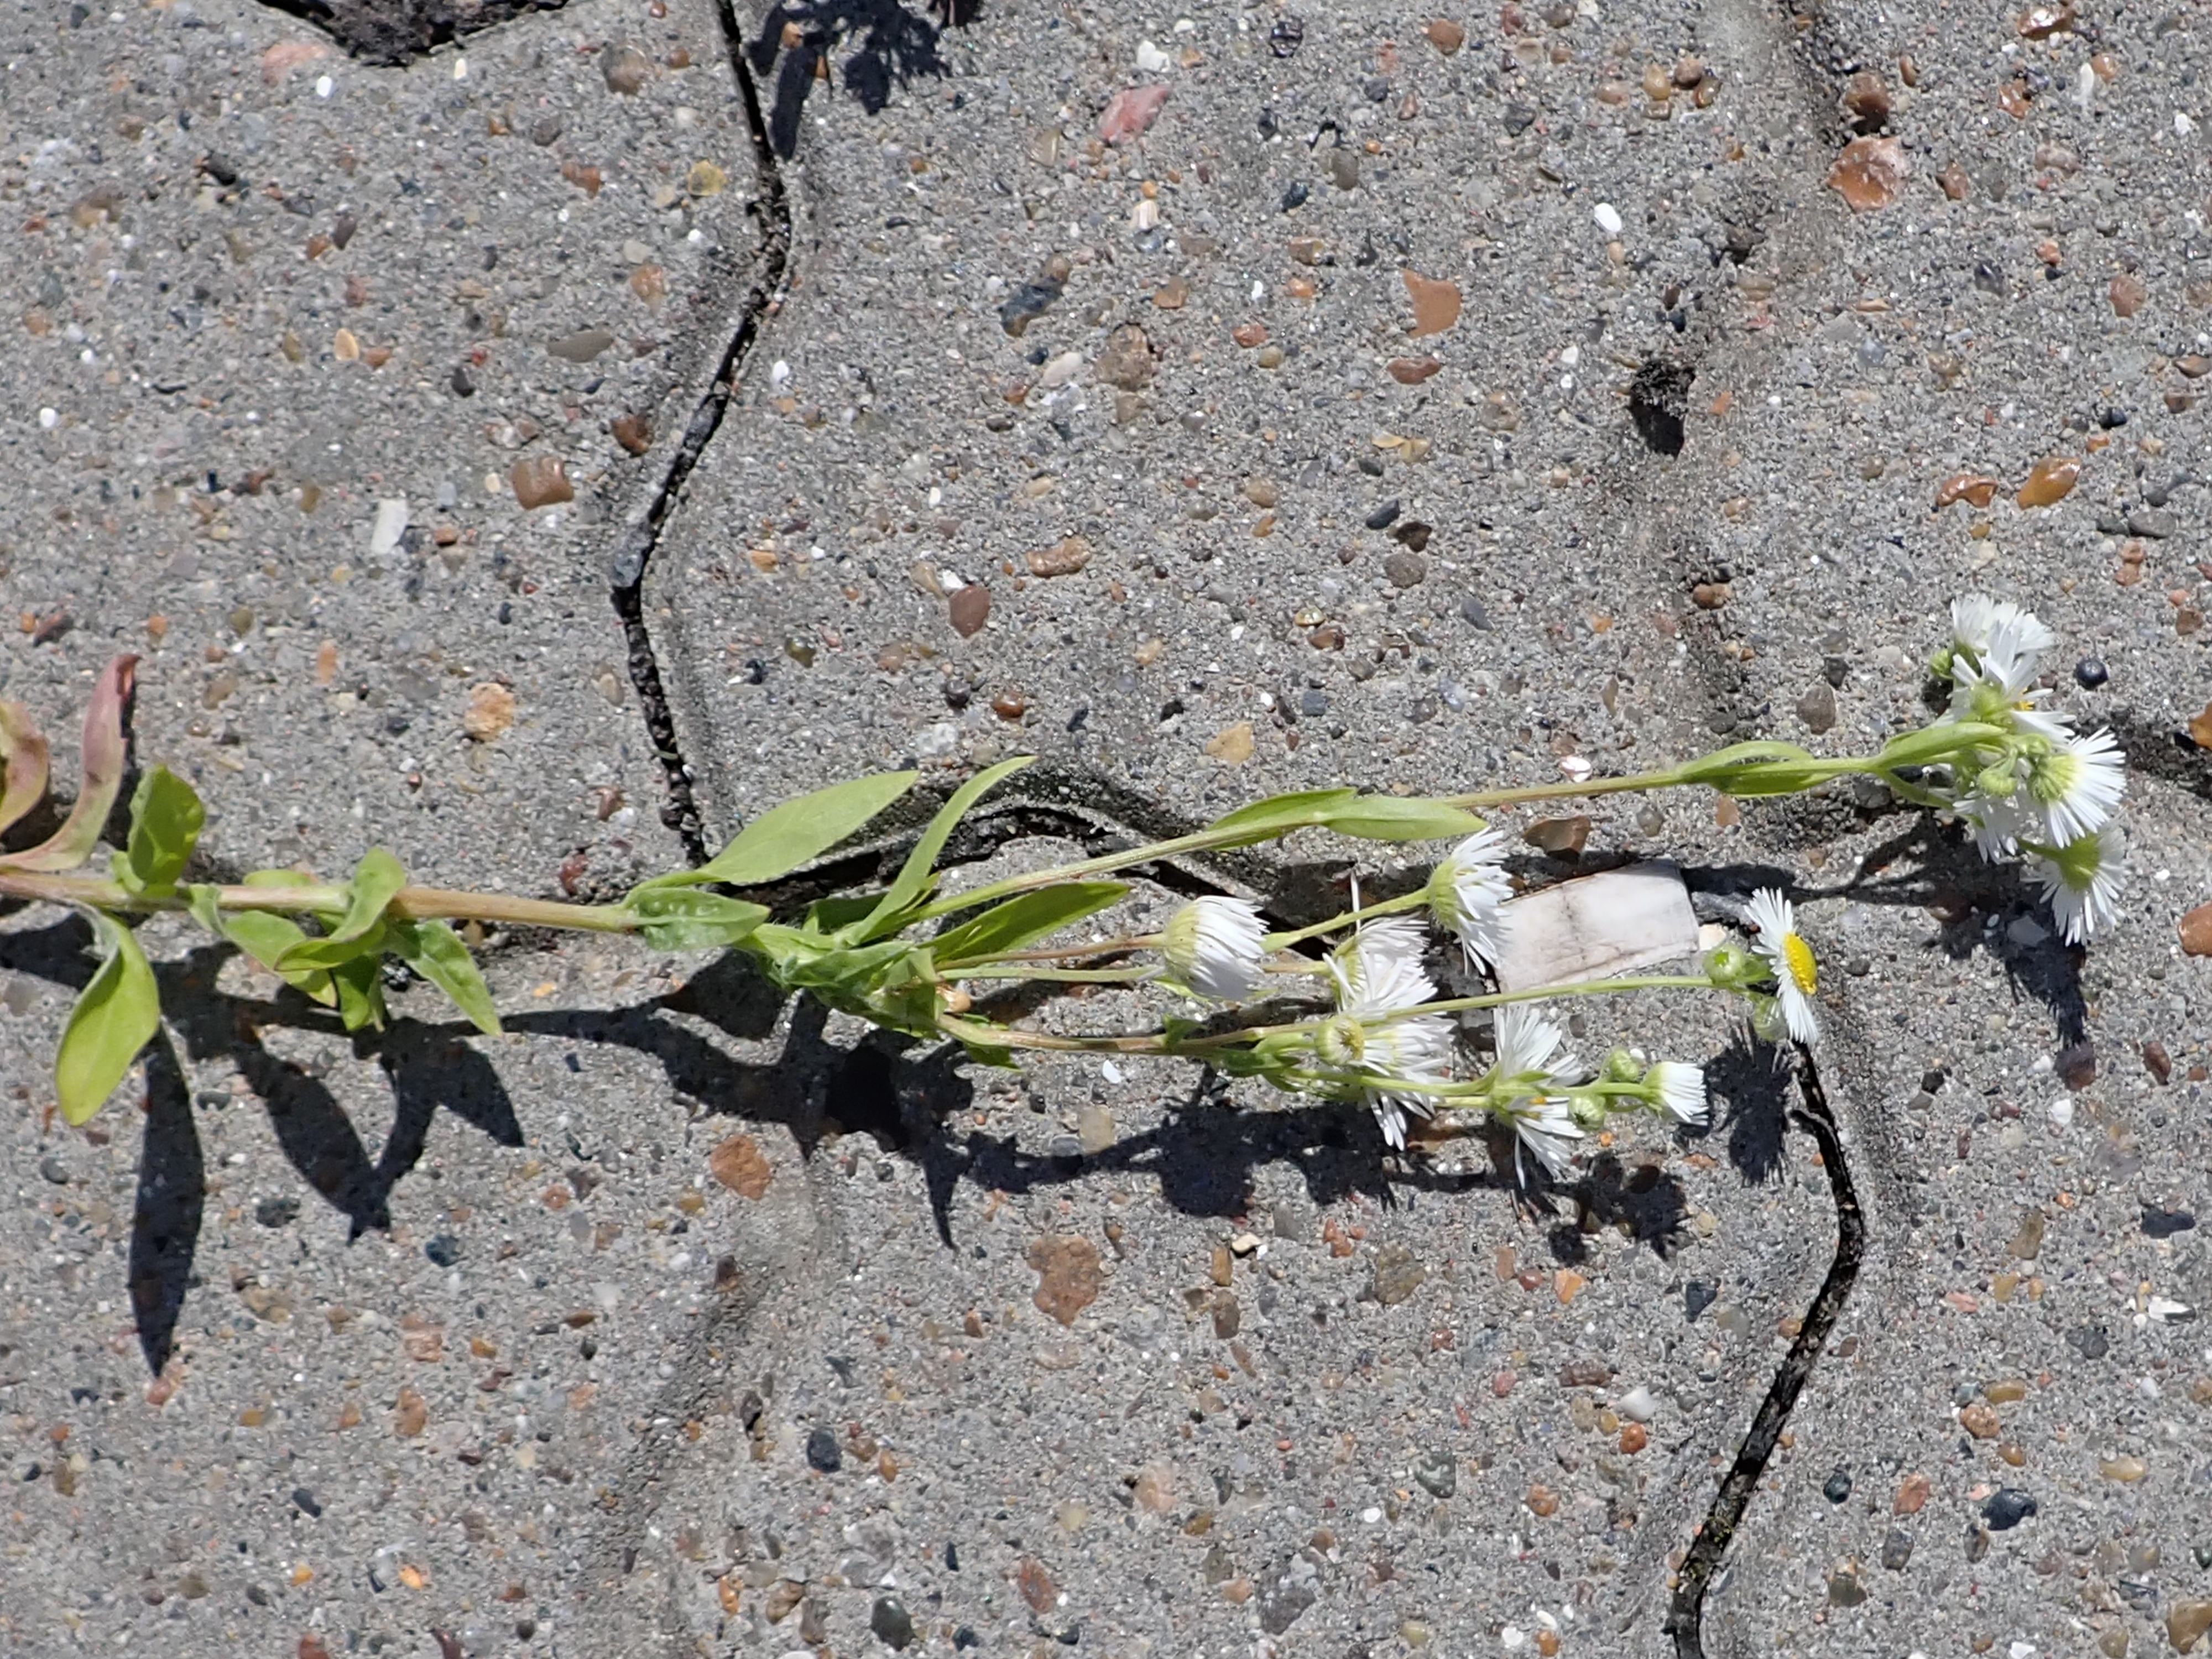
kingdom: Plantae
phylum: Tracheophyta
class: Magnoliopsida
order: Asterales
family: Asteraceae
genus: Erigeron
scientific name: Erigeron strigosus
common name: Hvid smalstråle
